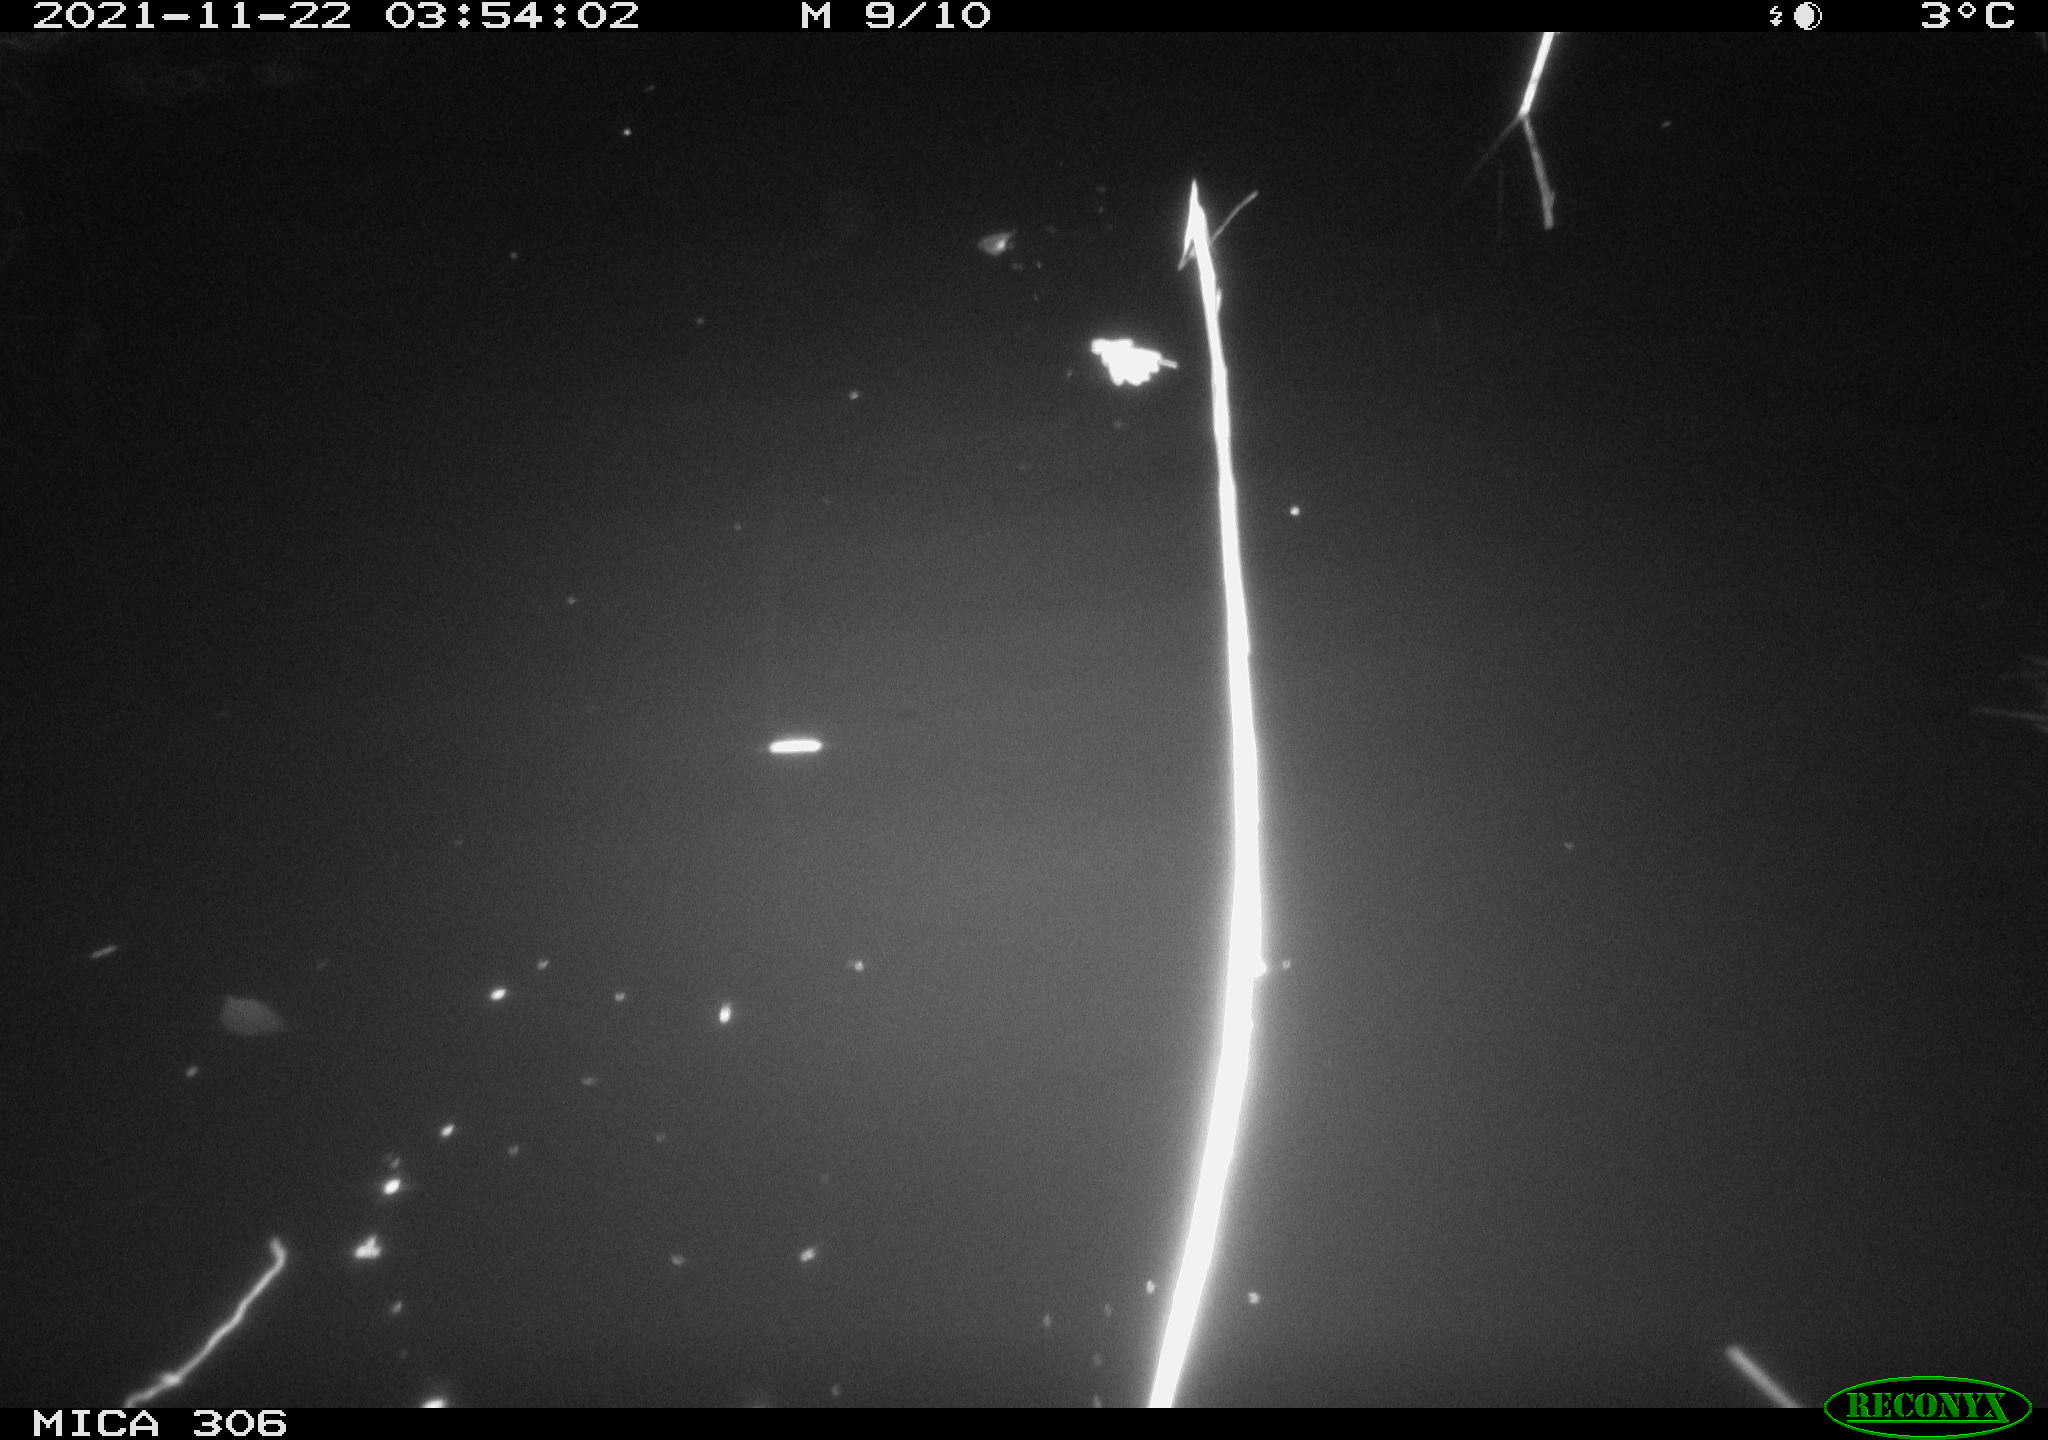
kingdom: Animalia
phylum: Chordata
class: Mammalia
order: Rodentia
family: Muridae
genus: Rattus
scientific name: Rattus norvegicus
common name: Brown rat
